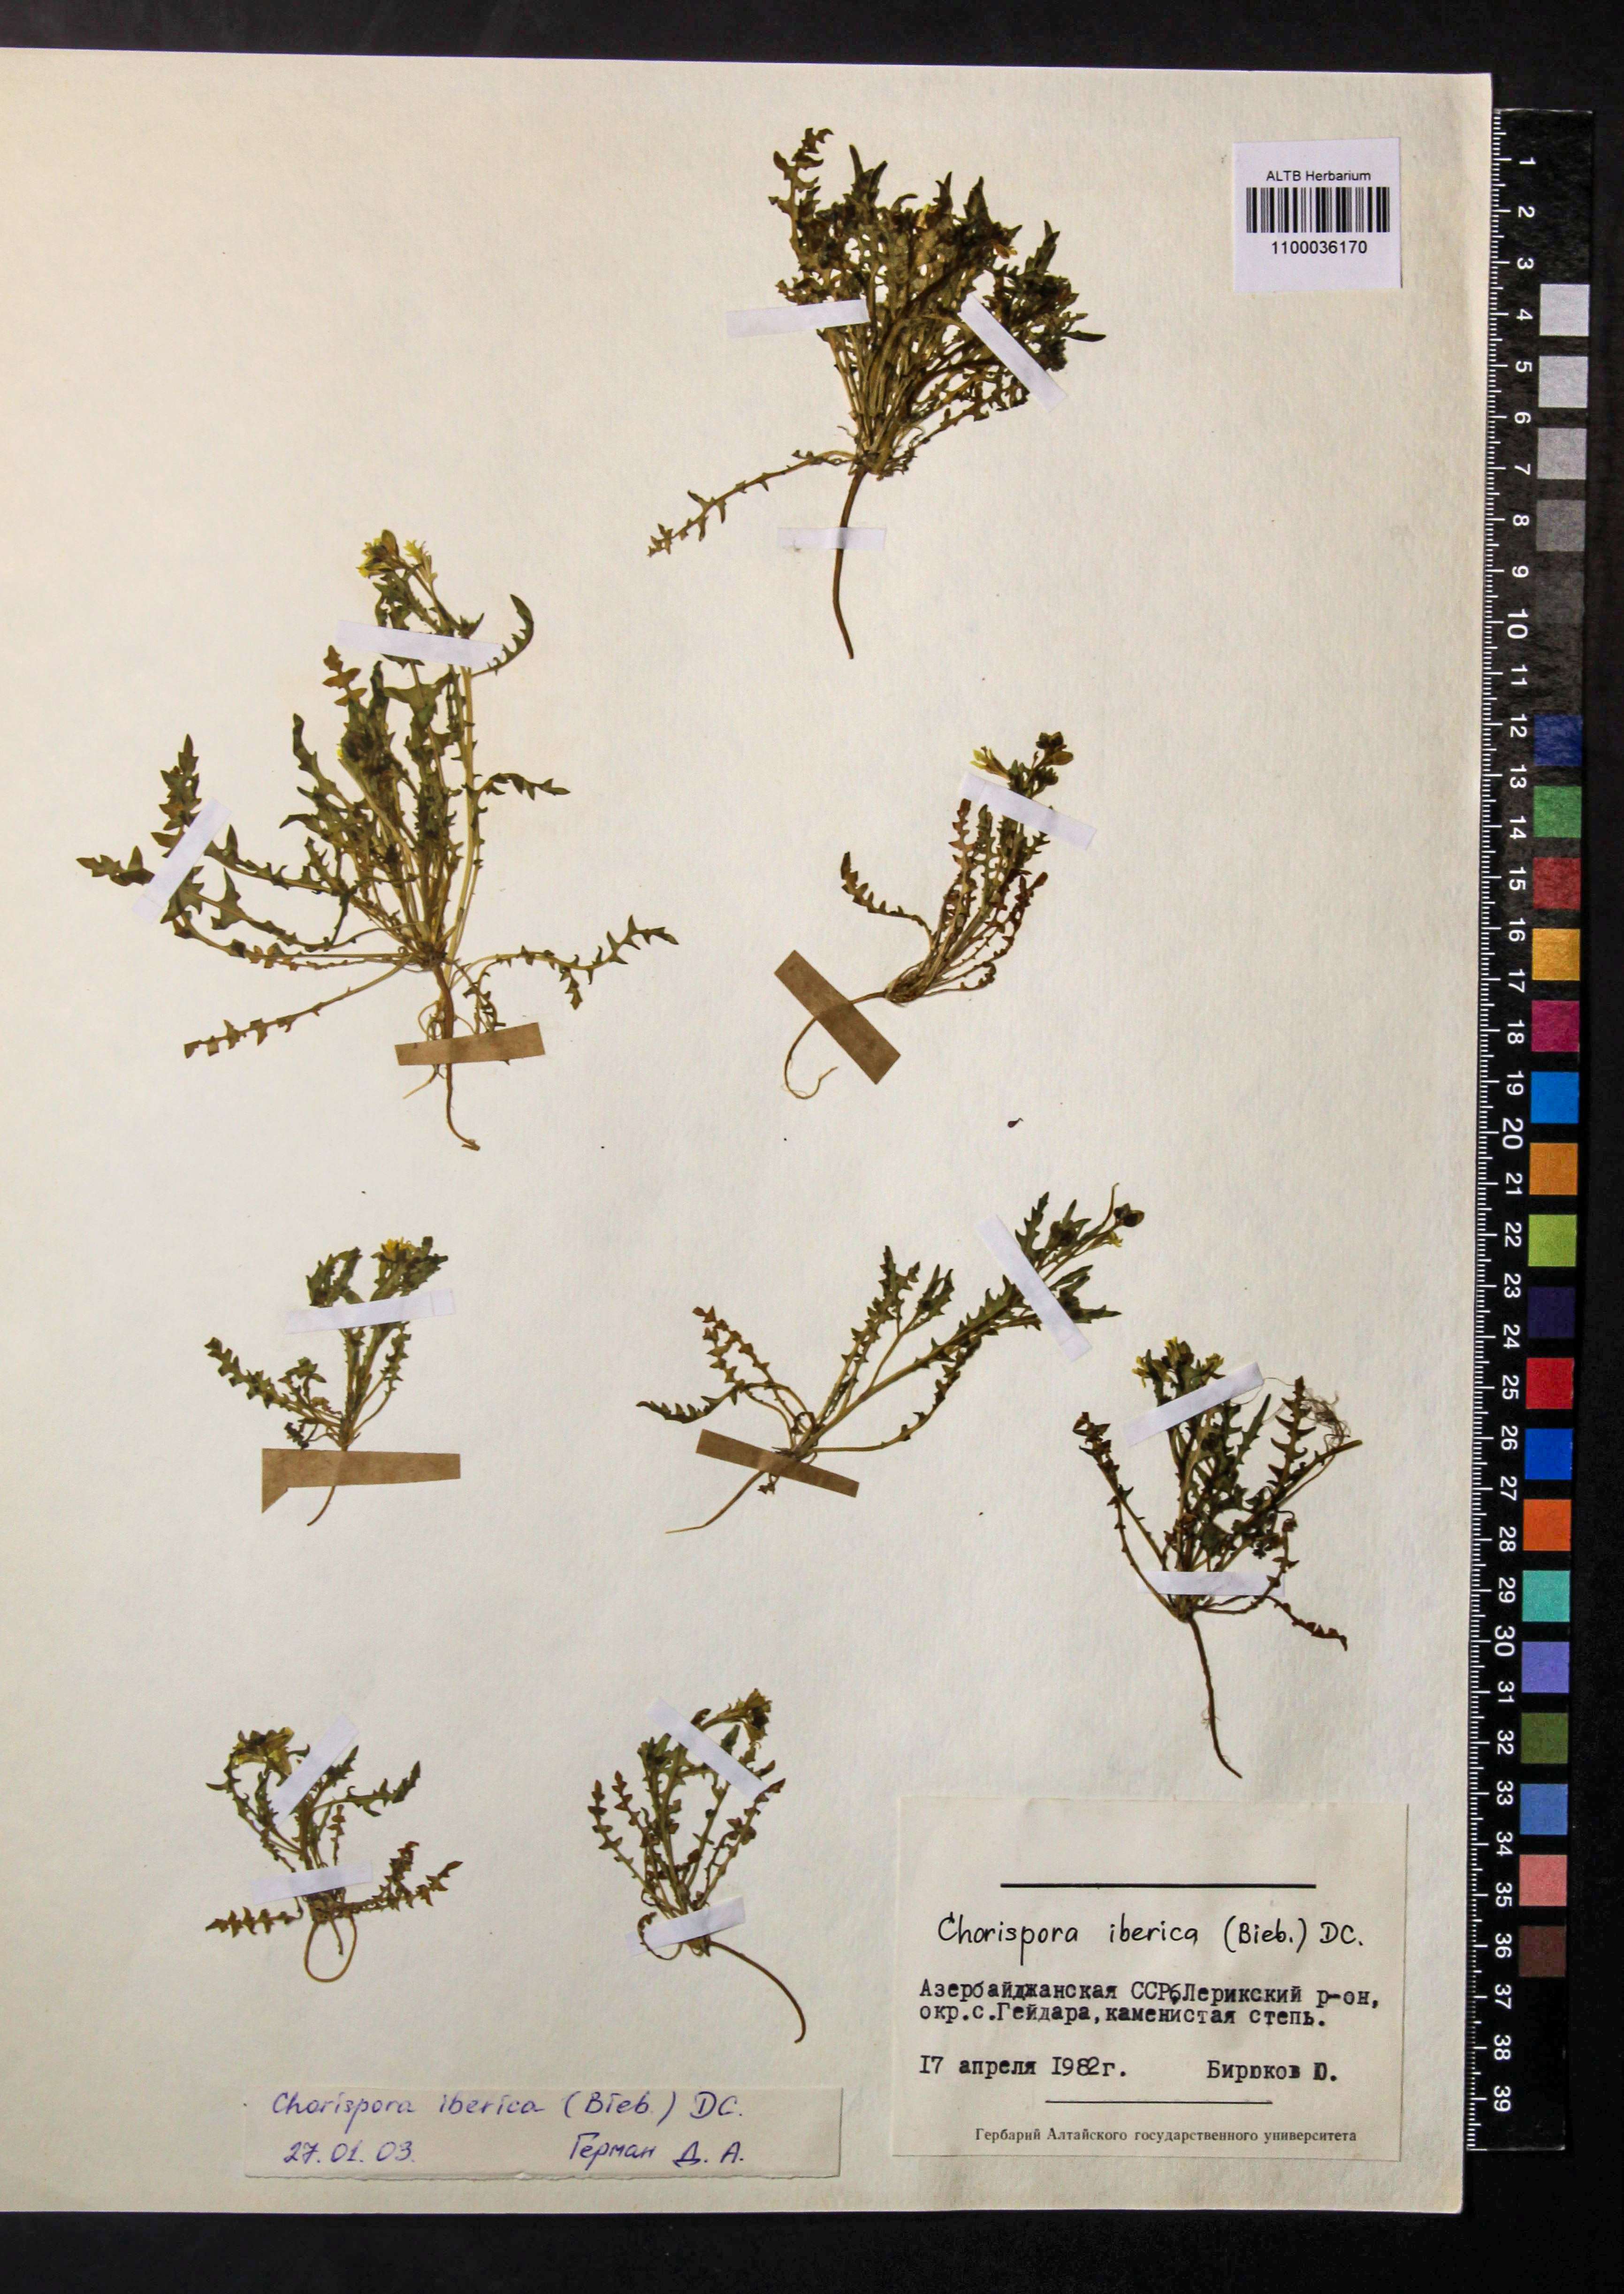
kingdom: Plantae
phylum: Tracheophyta
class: Magnoliopsida
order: Brassicales
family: Brassicaceae
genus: Chorispora
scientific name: Chorispora iberica
